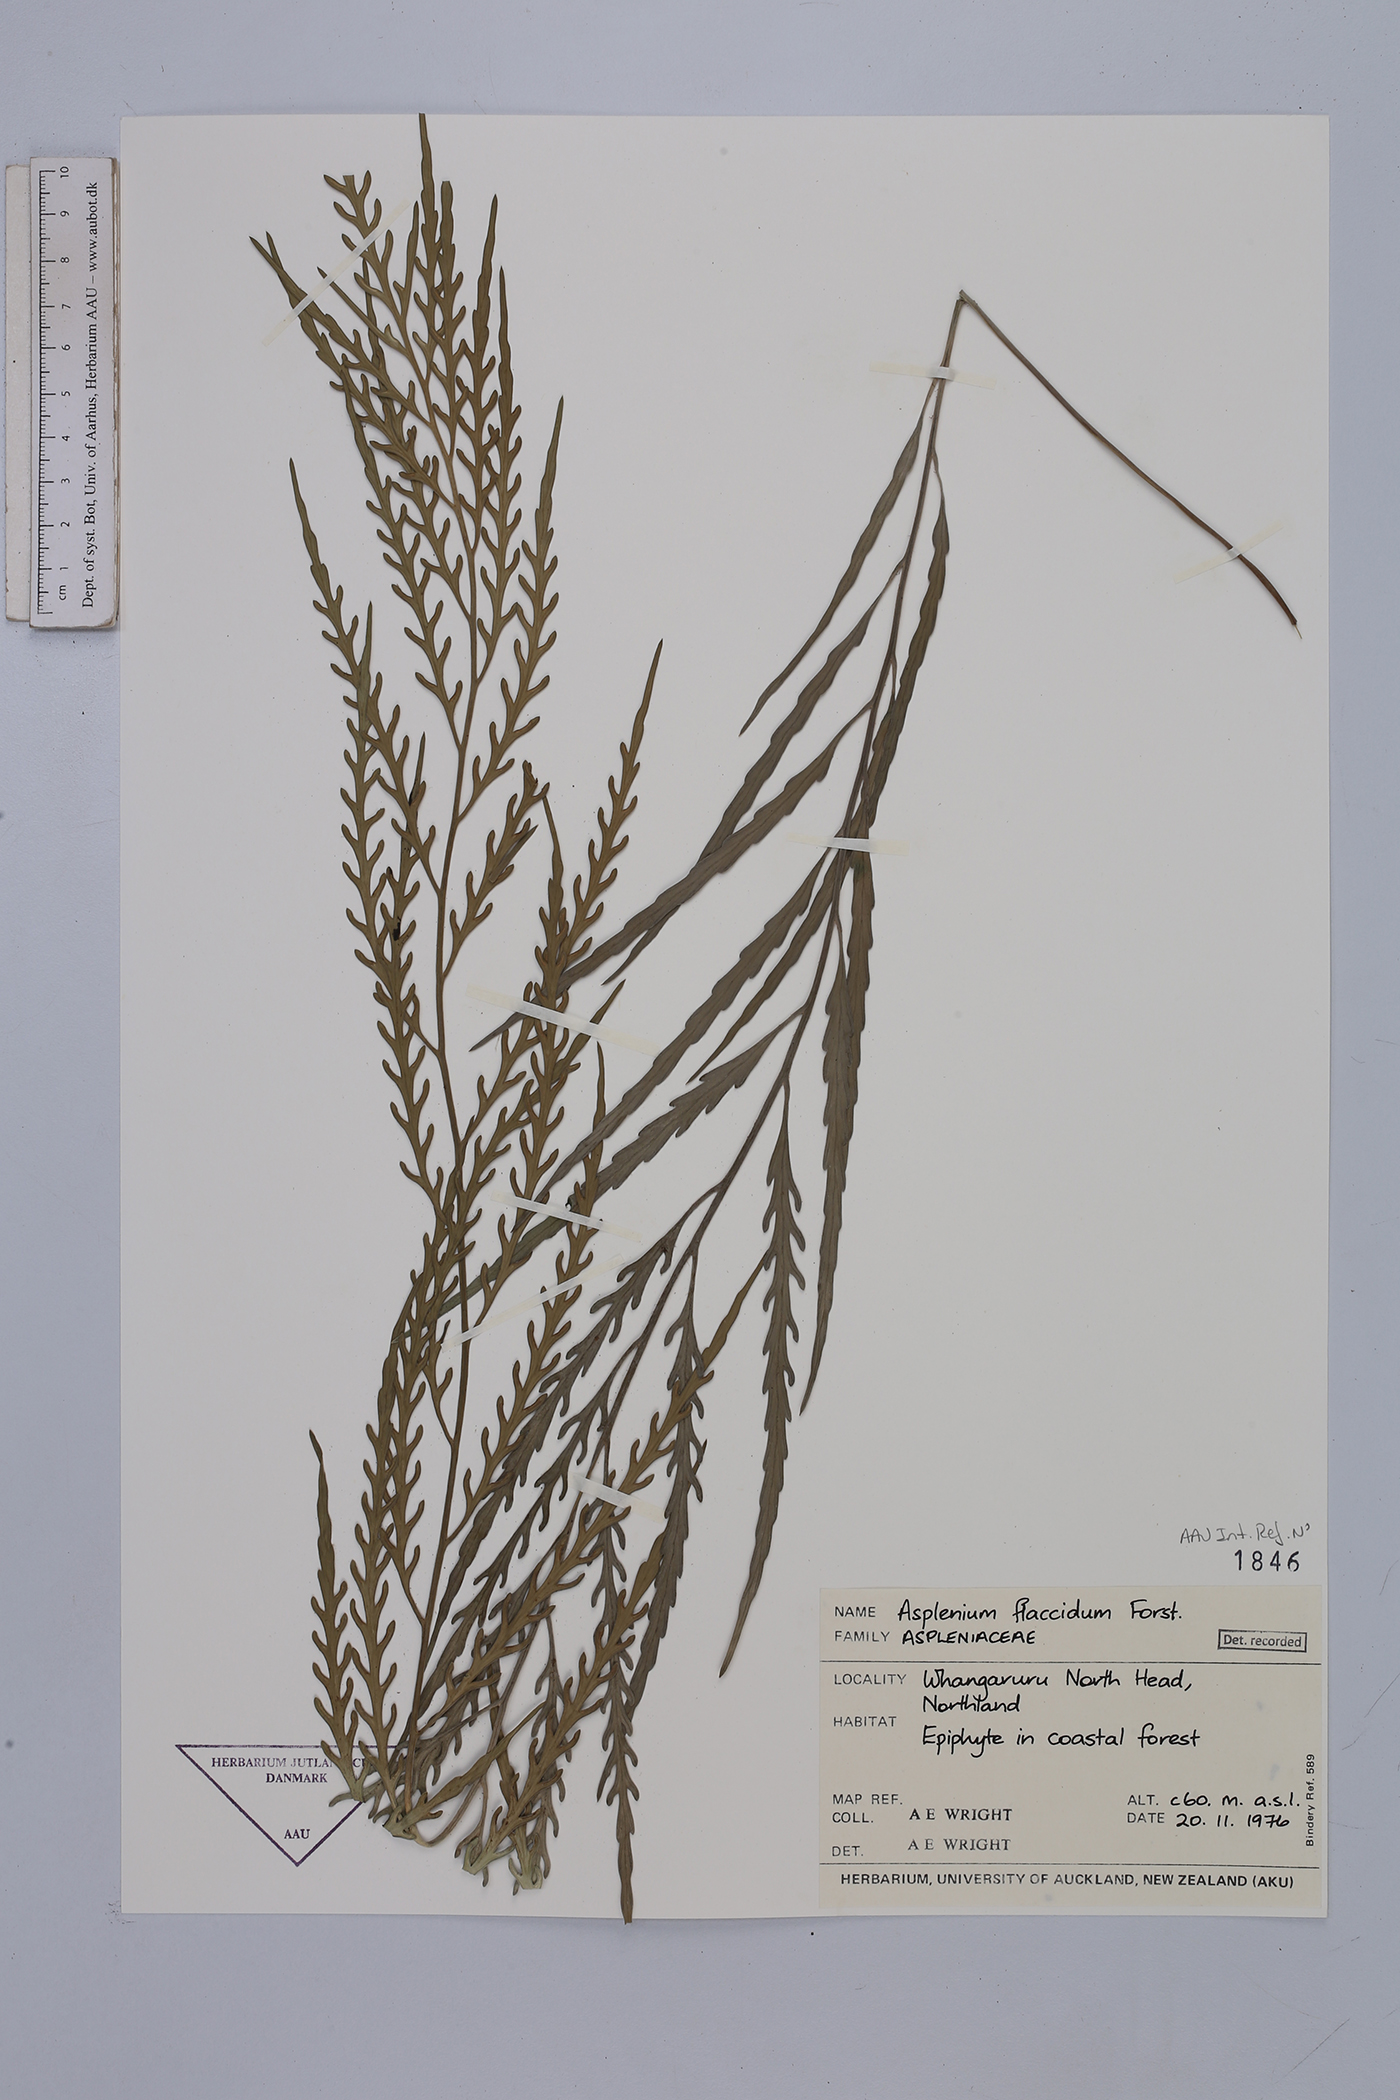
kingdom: Plantae
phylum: Tracheophyta
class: Polypodiopsida
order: Polypodiales
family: Aspleniaceae
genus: Asplenium
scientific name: Asplenium flaccidum
